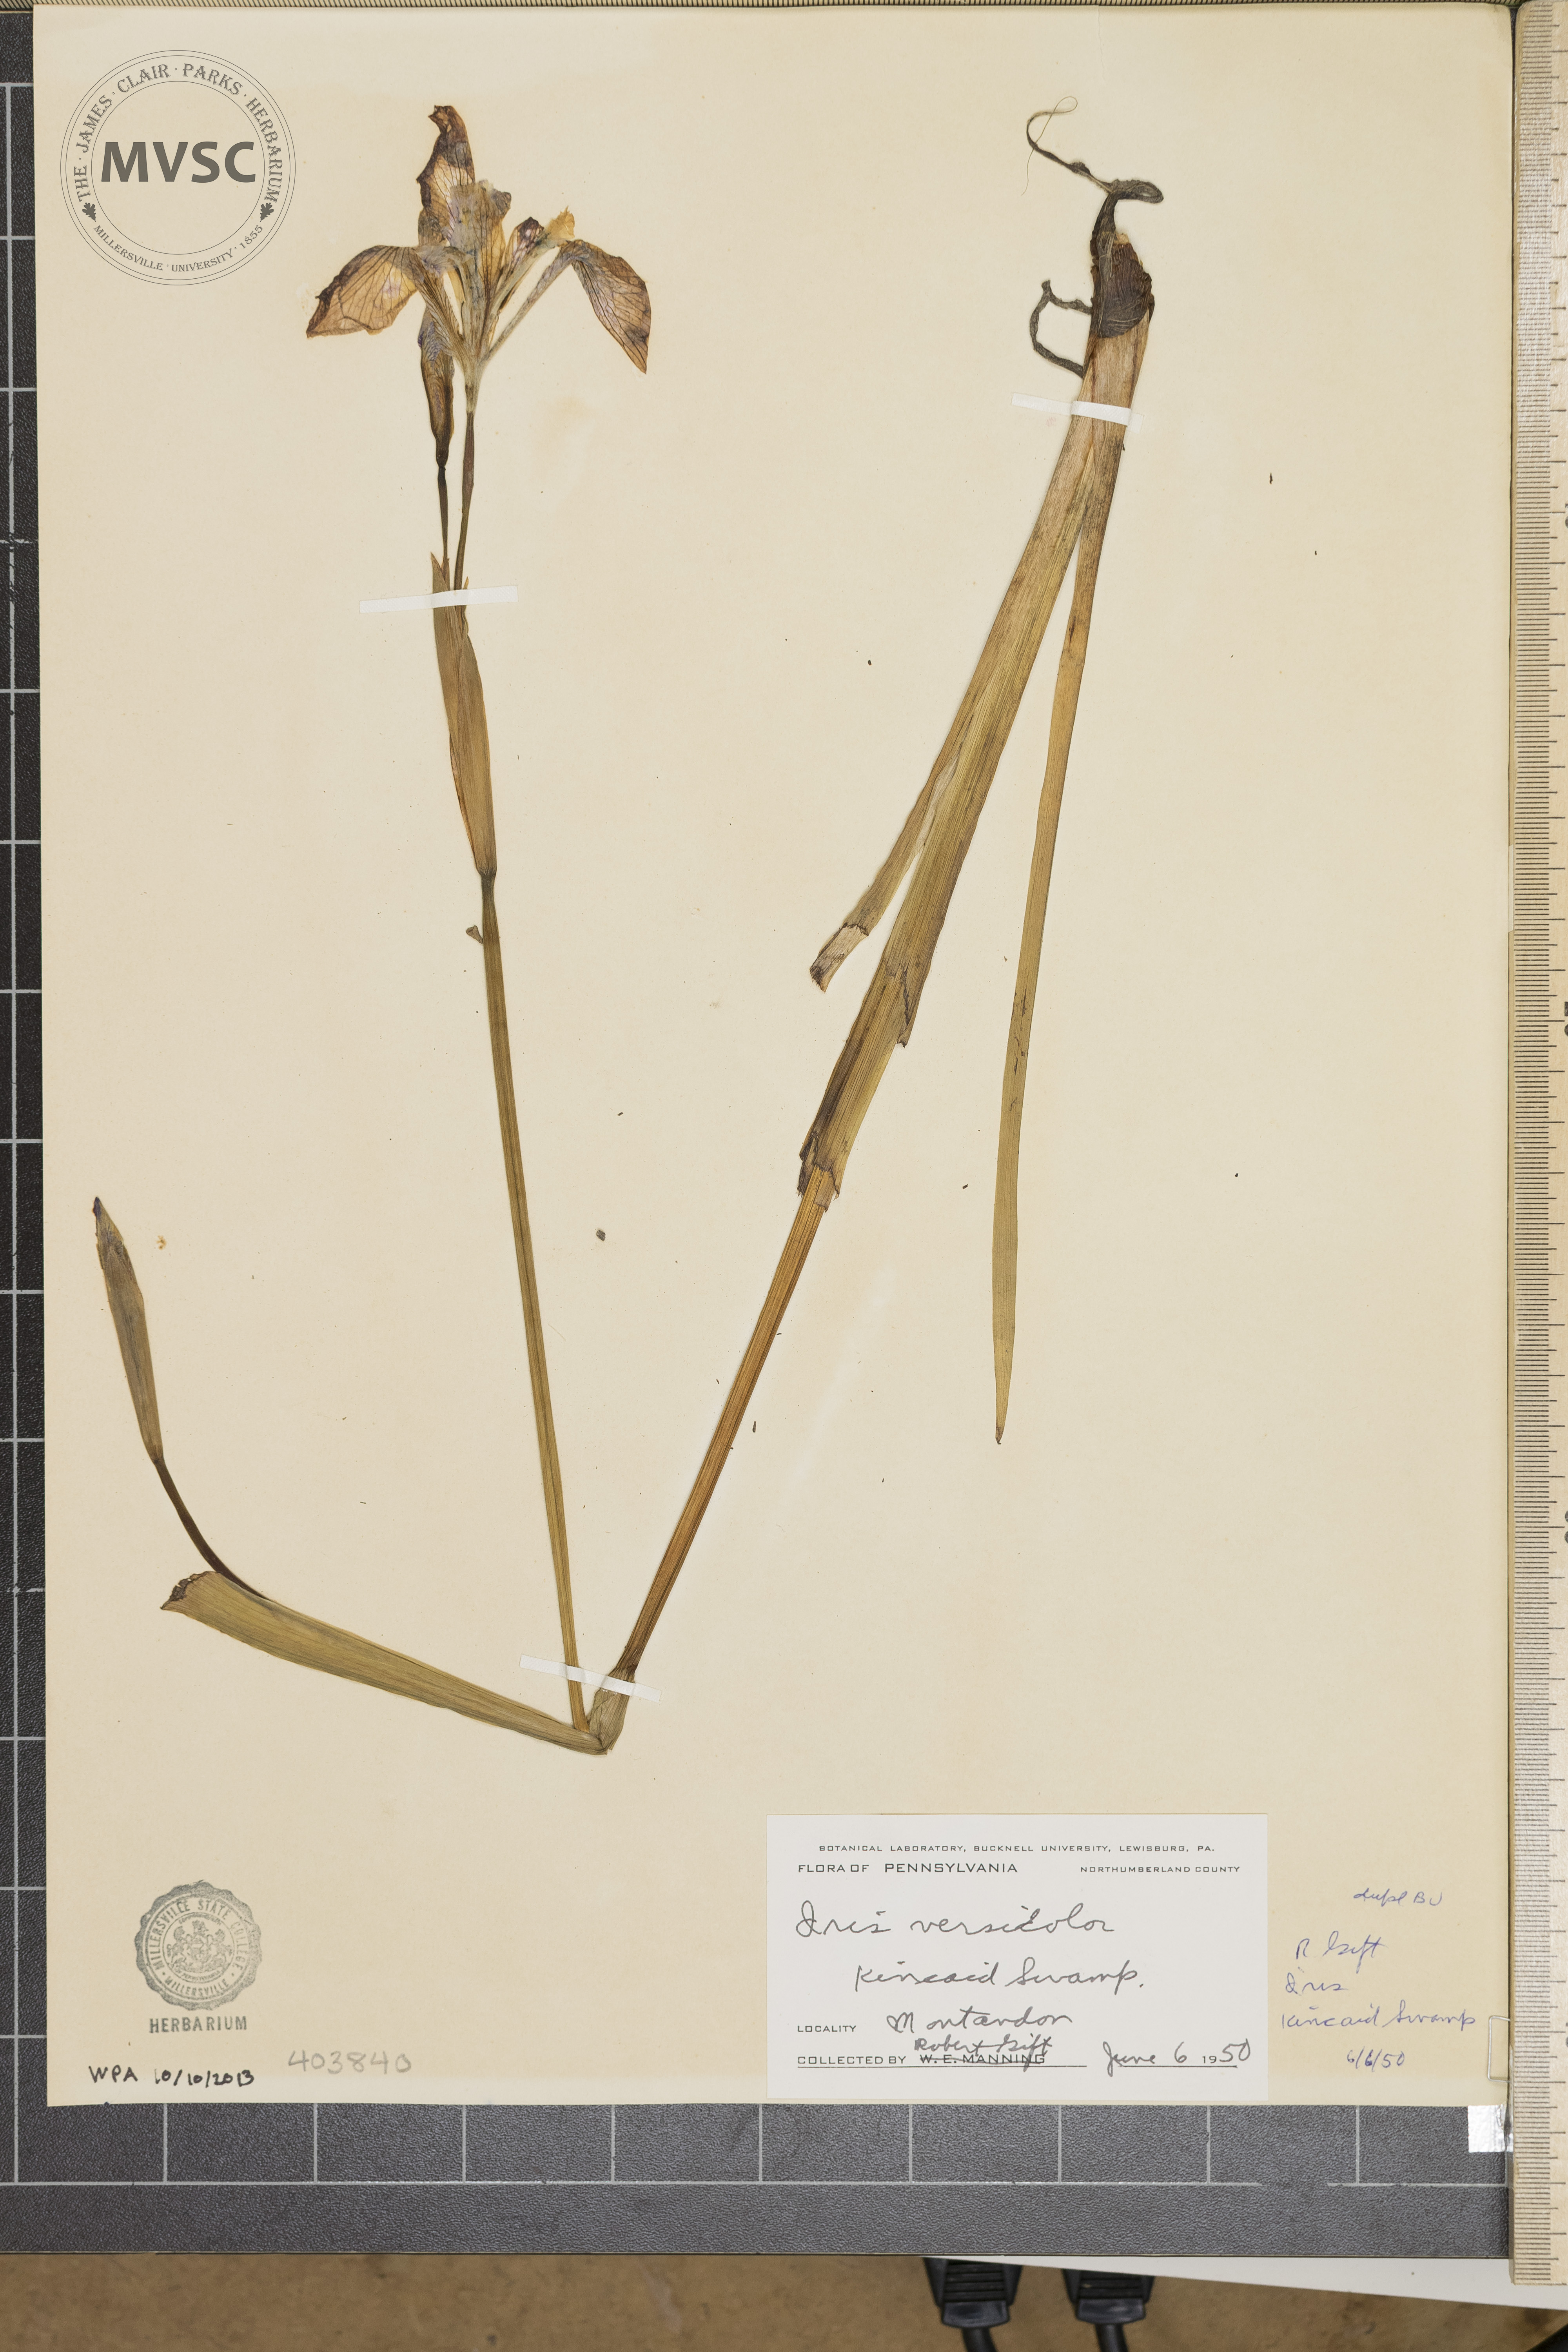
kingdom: Plantae
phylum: Tracheophyta
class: Liliopsida
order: Asparagales
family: Iridaceae
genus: Iris
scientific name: Iris versicolor
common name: Purple iris
